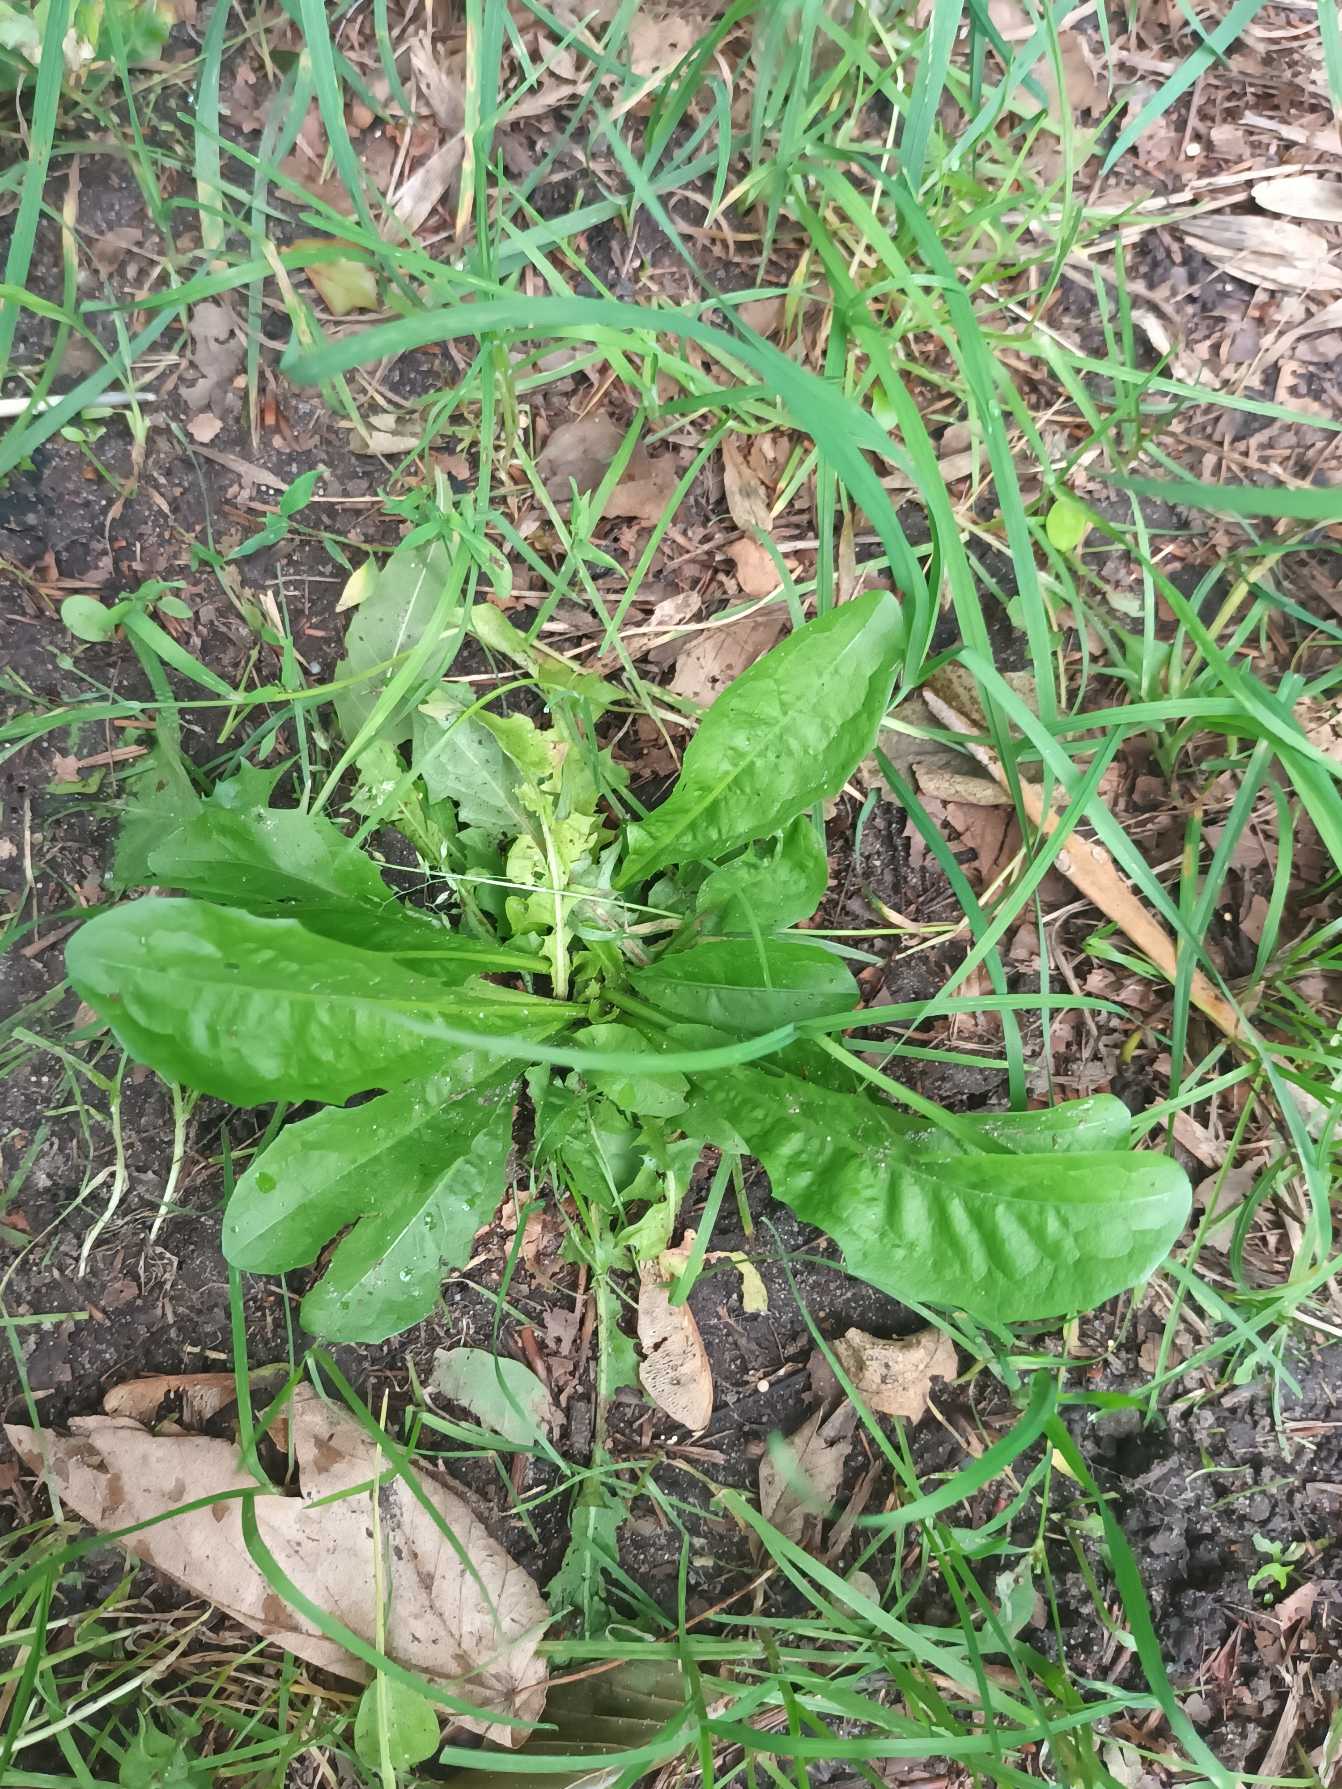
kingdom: Plantae
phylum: Tracheophyta
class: Magnoliopsida
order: Asterales
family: Asteraceae
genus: Taraxacum
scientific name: Taraxacum
